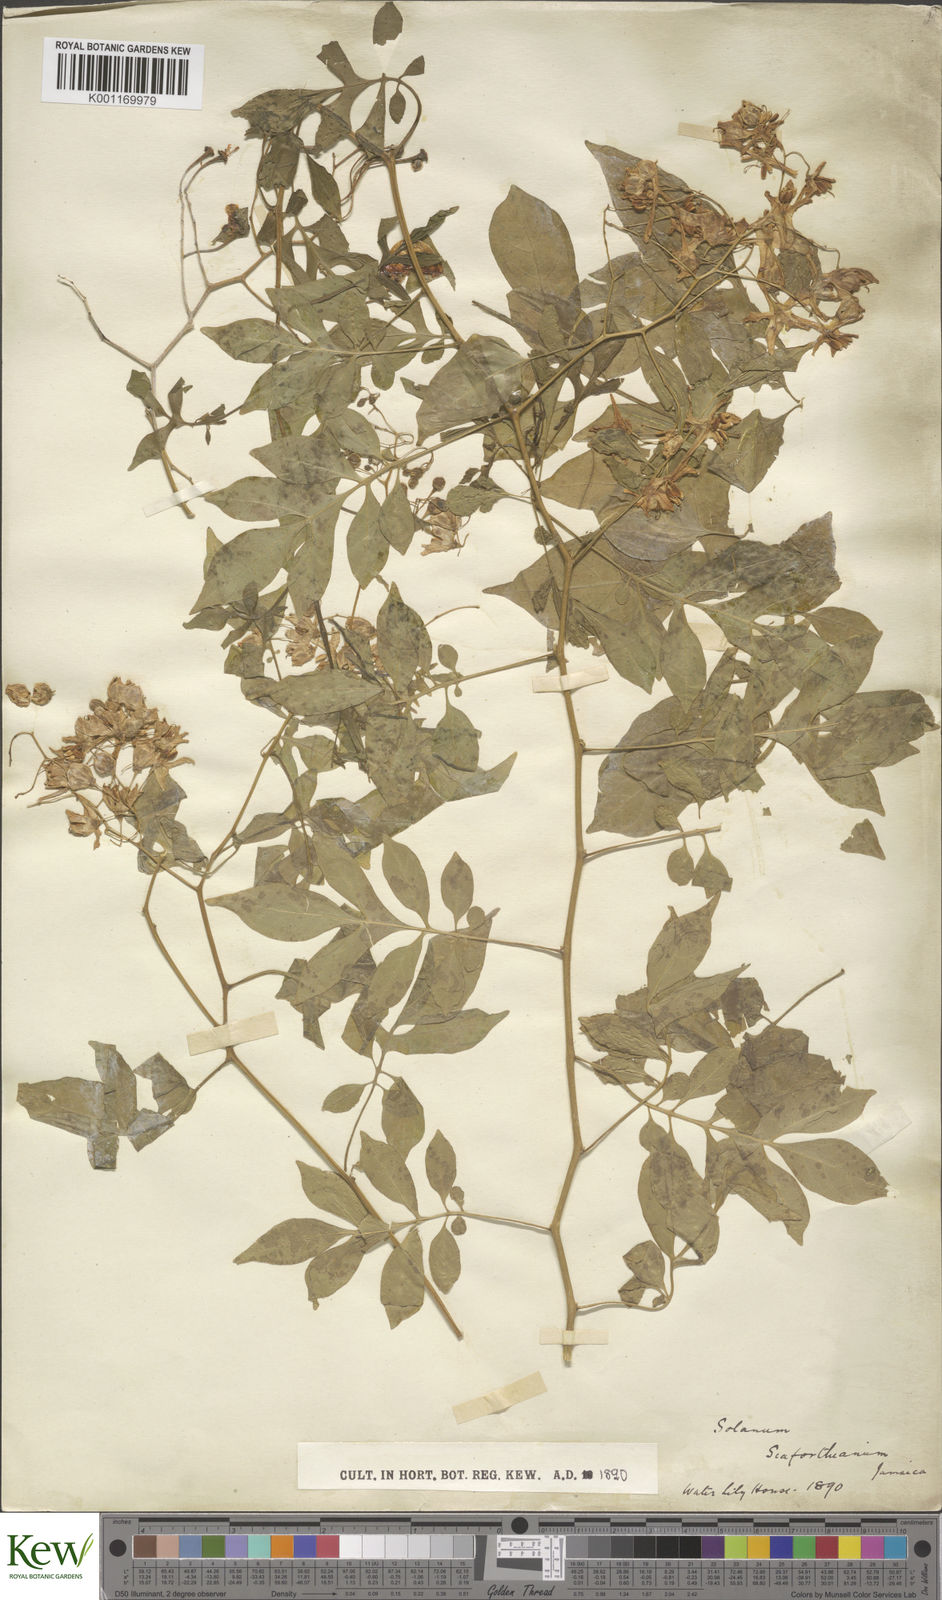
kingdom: Plantae
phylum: Tracheophyta
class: Magnoliopsida
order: Solanales
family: Solanaceae
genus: Solanum
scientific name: Solanum seaforthianum
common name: Brazilian nightshade
